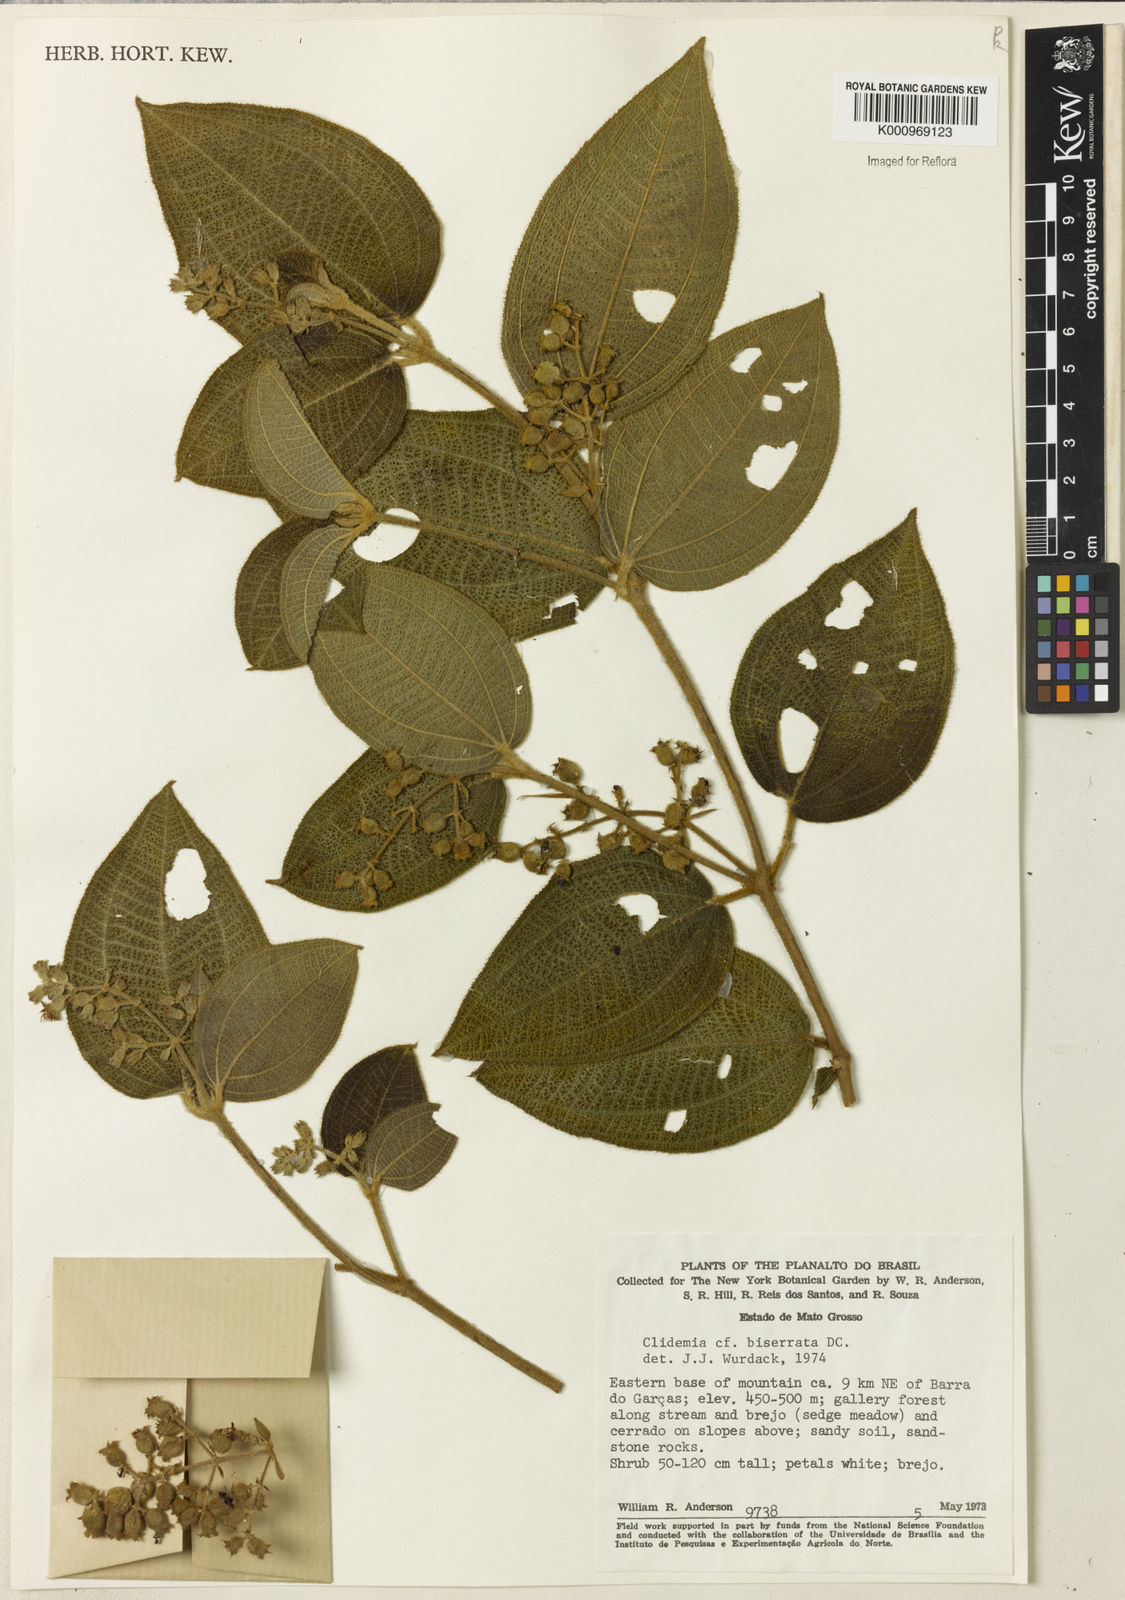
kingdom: Plantae
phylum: Tracheophyta
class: Magnoliopsida
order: Myrtales
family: Melastomataceae
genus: Miconia
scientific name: Miconia biserrata
